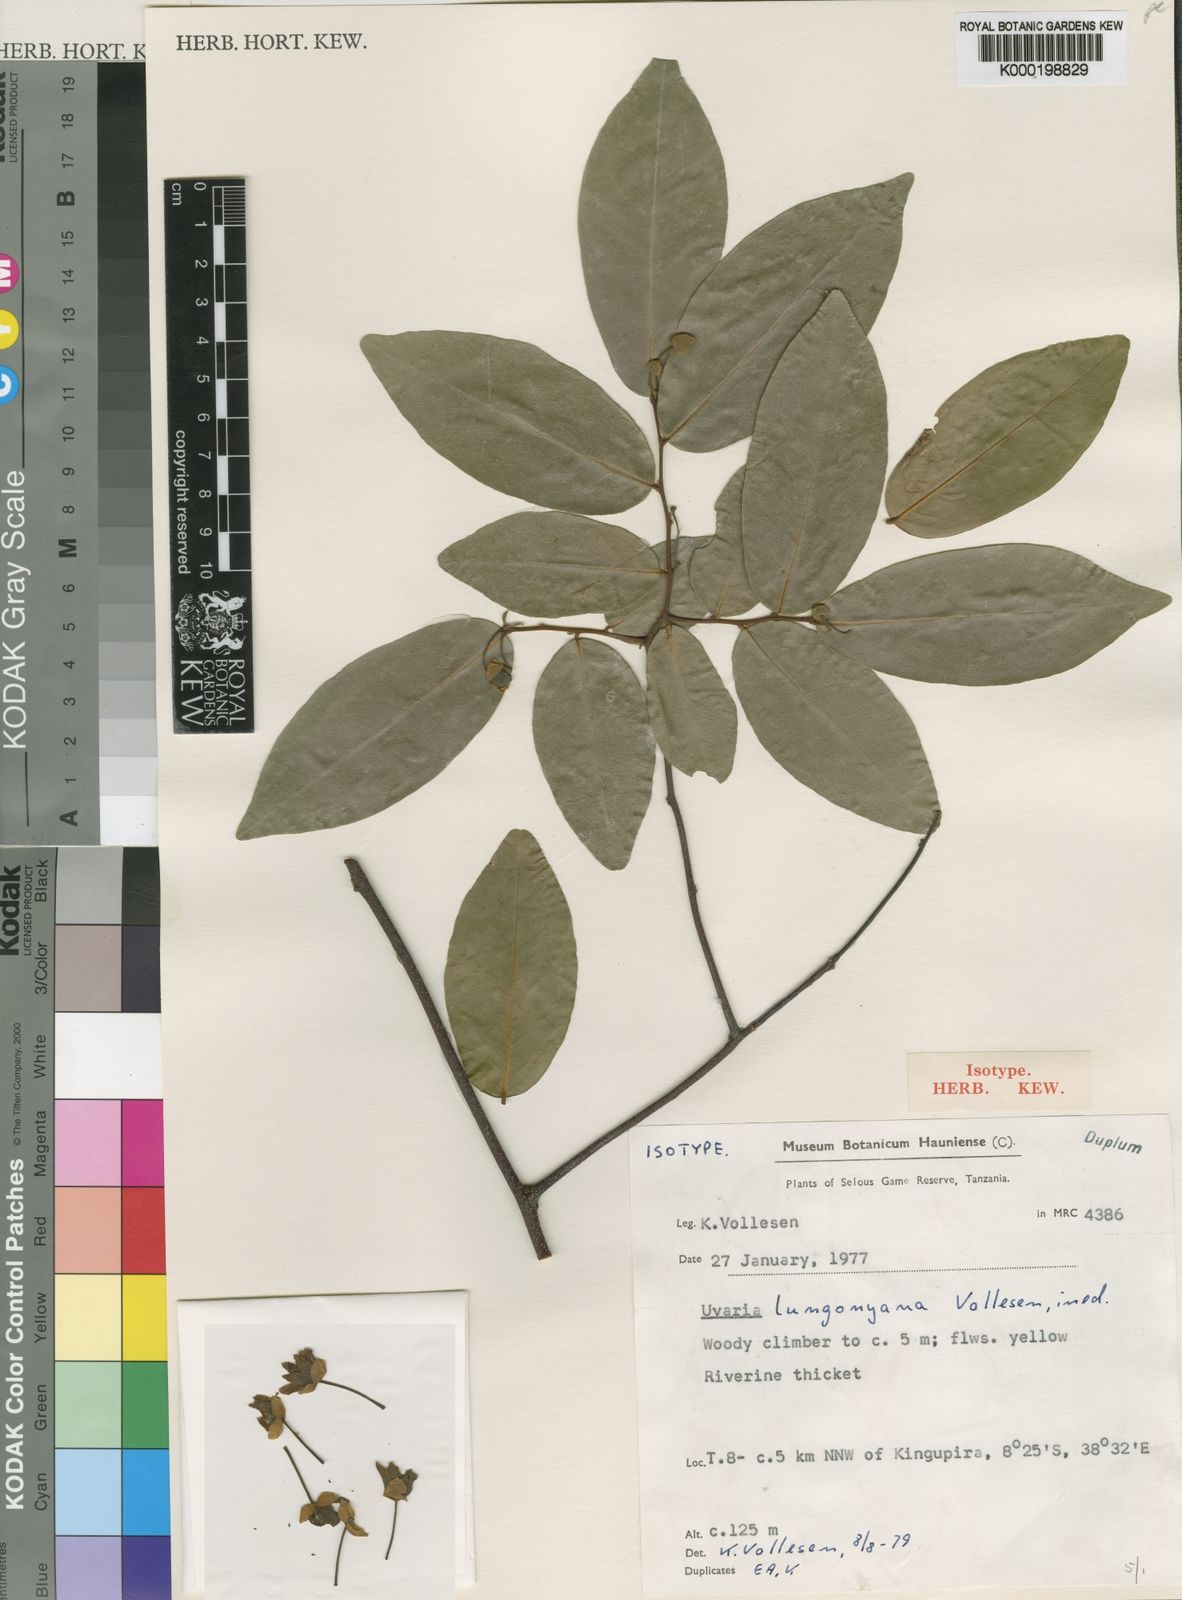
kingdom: Plantae
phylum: Tracheophyta
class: Magnoliopsida
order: Magnoliales
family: Annonaceae
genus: Uvaria
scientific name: Uvaria lungonyana
